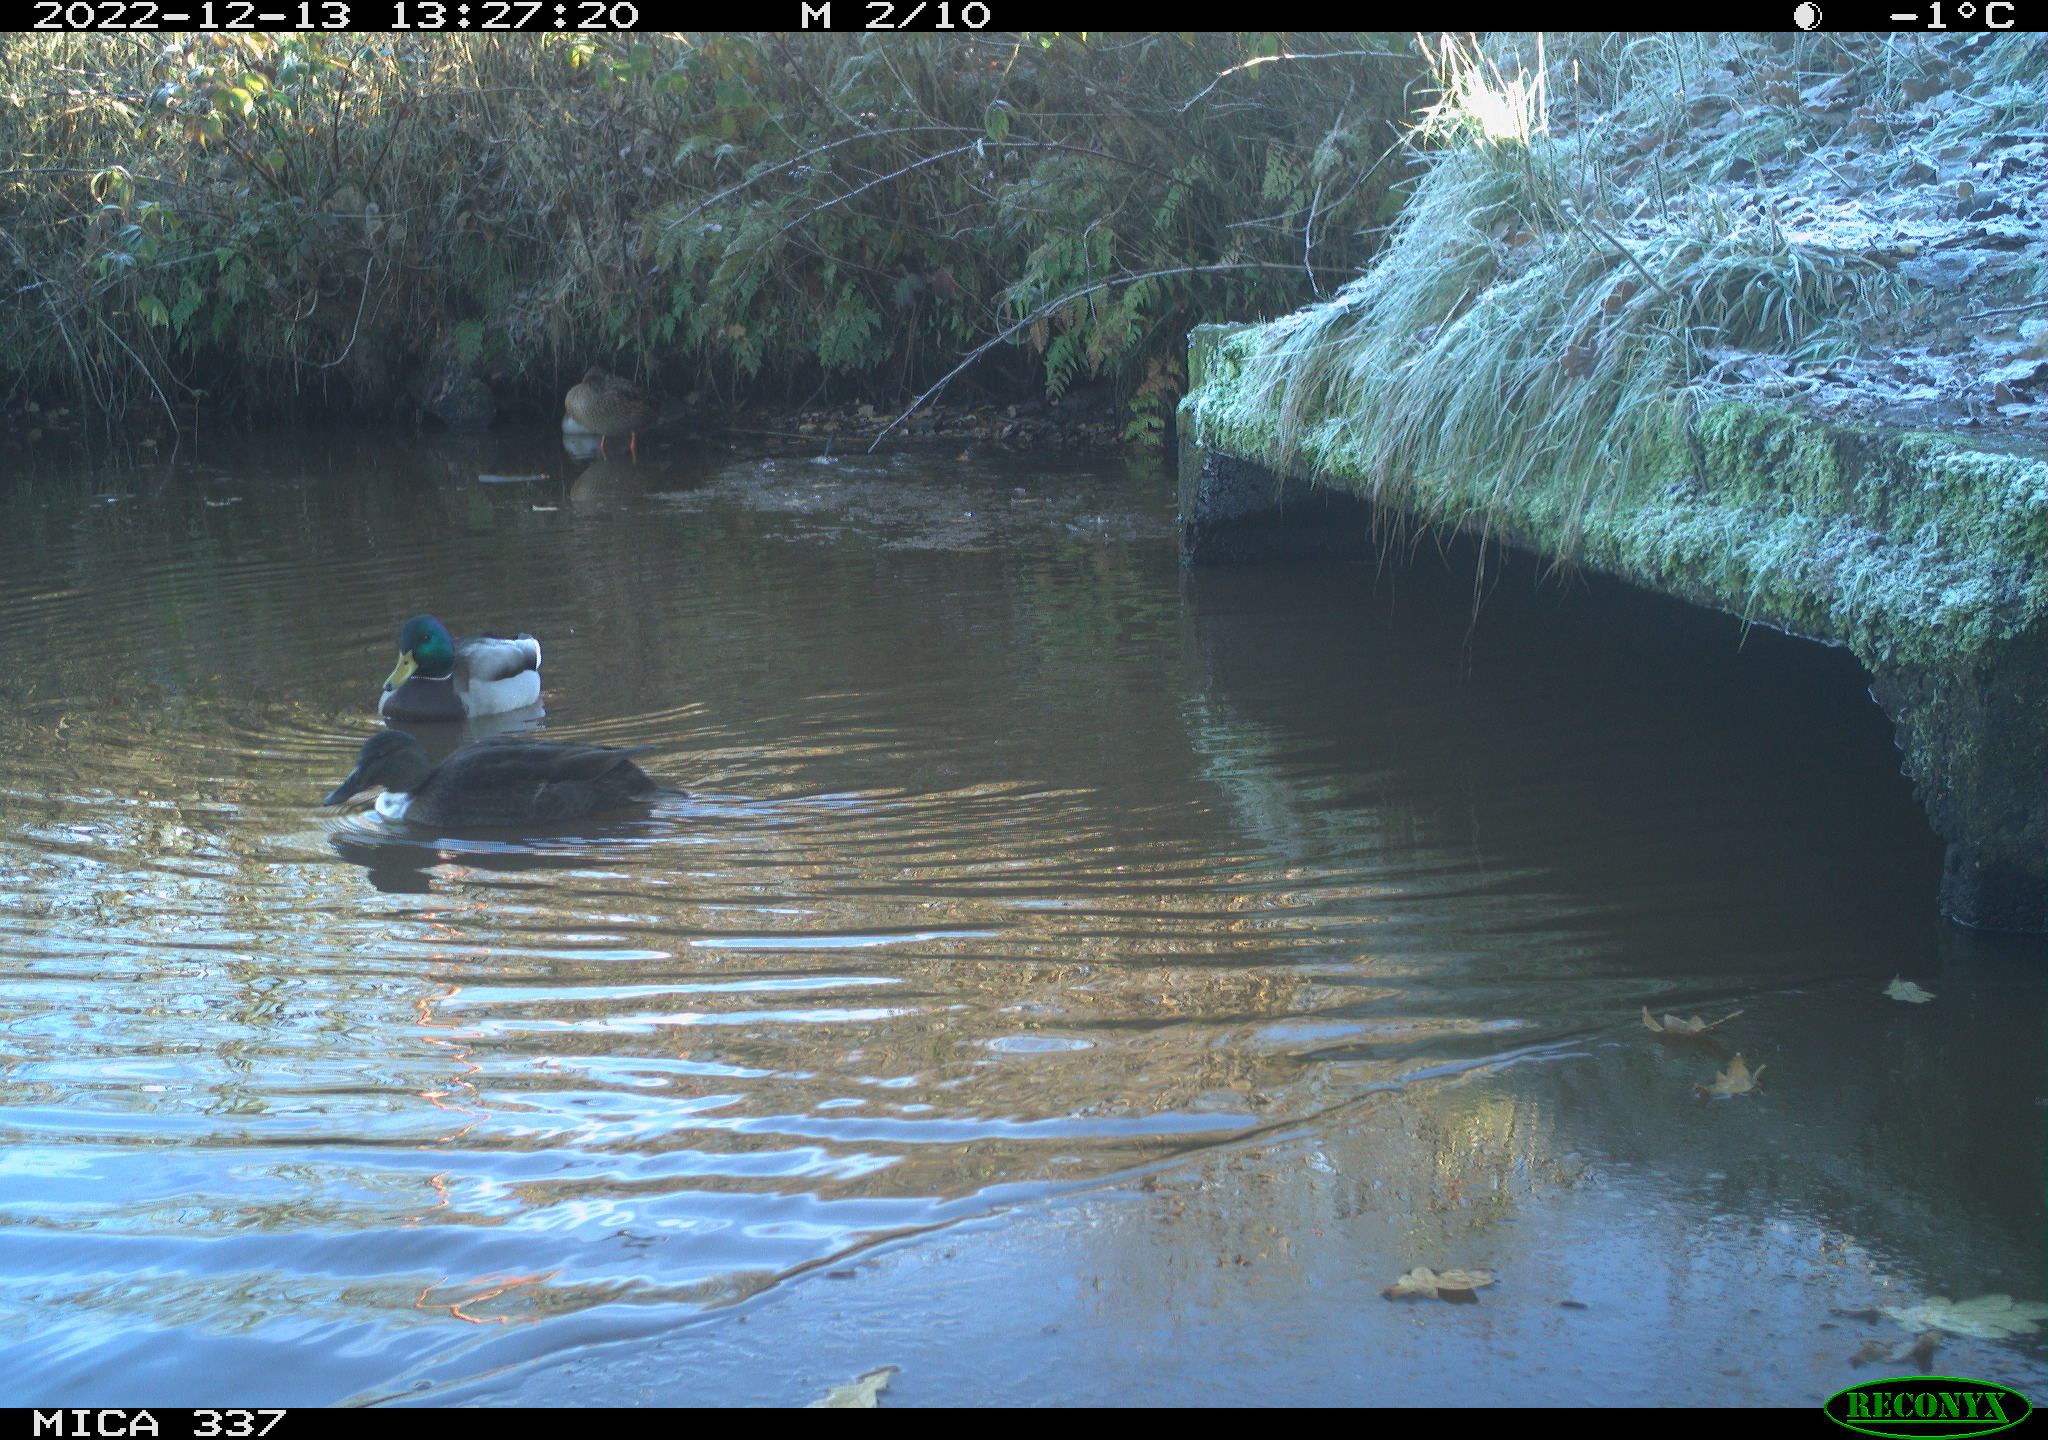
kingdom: Animalia
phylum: Chordata
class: Aves
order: Anseriformes
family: Anatidae
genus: Anas
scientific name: Anas
